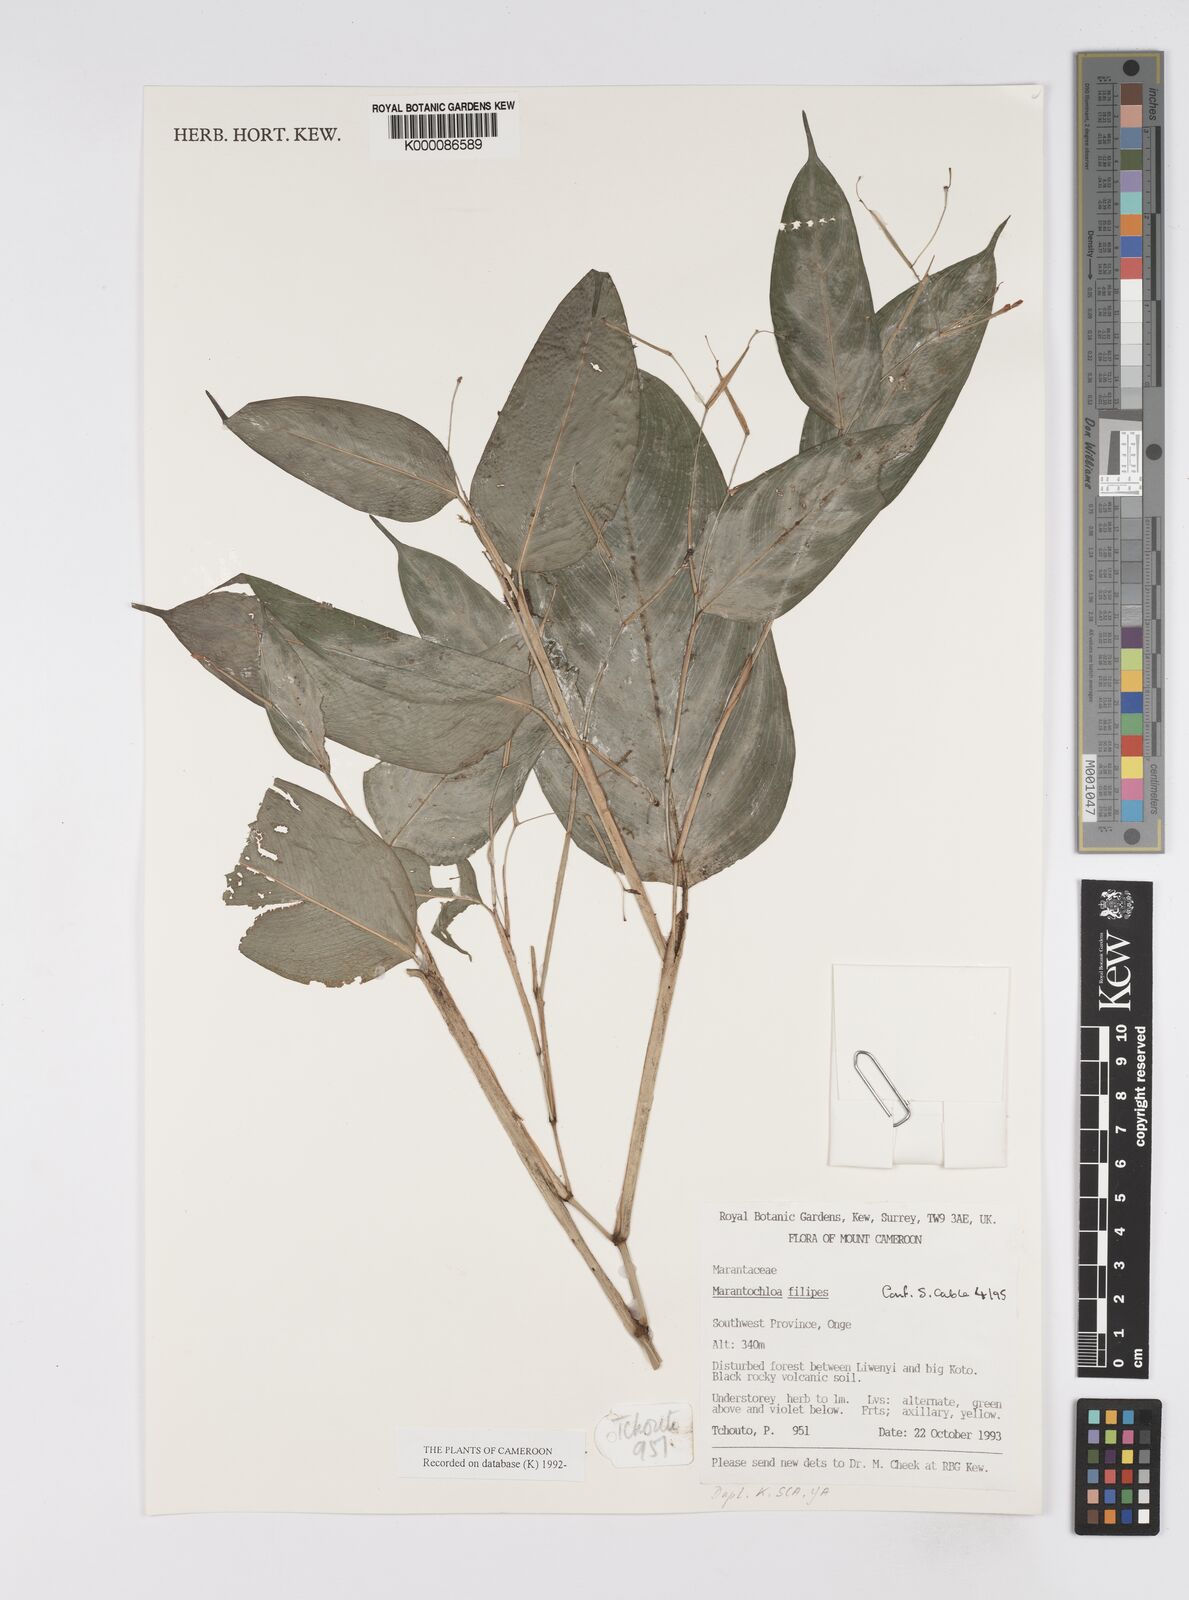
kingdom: Plantae
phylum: Tracheophyta
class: Liliopsida
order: Zingiberales
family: Marantaceae
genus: Marantochloa
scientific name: Marantochloa filipes
